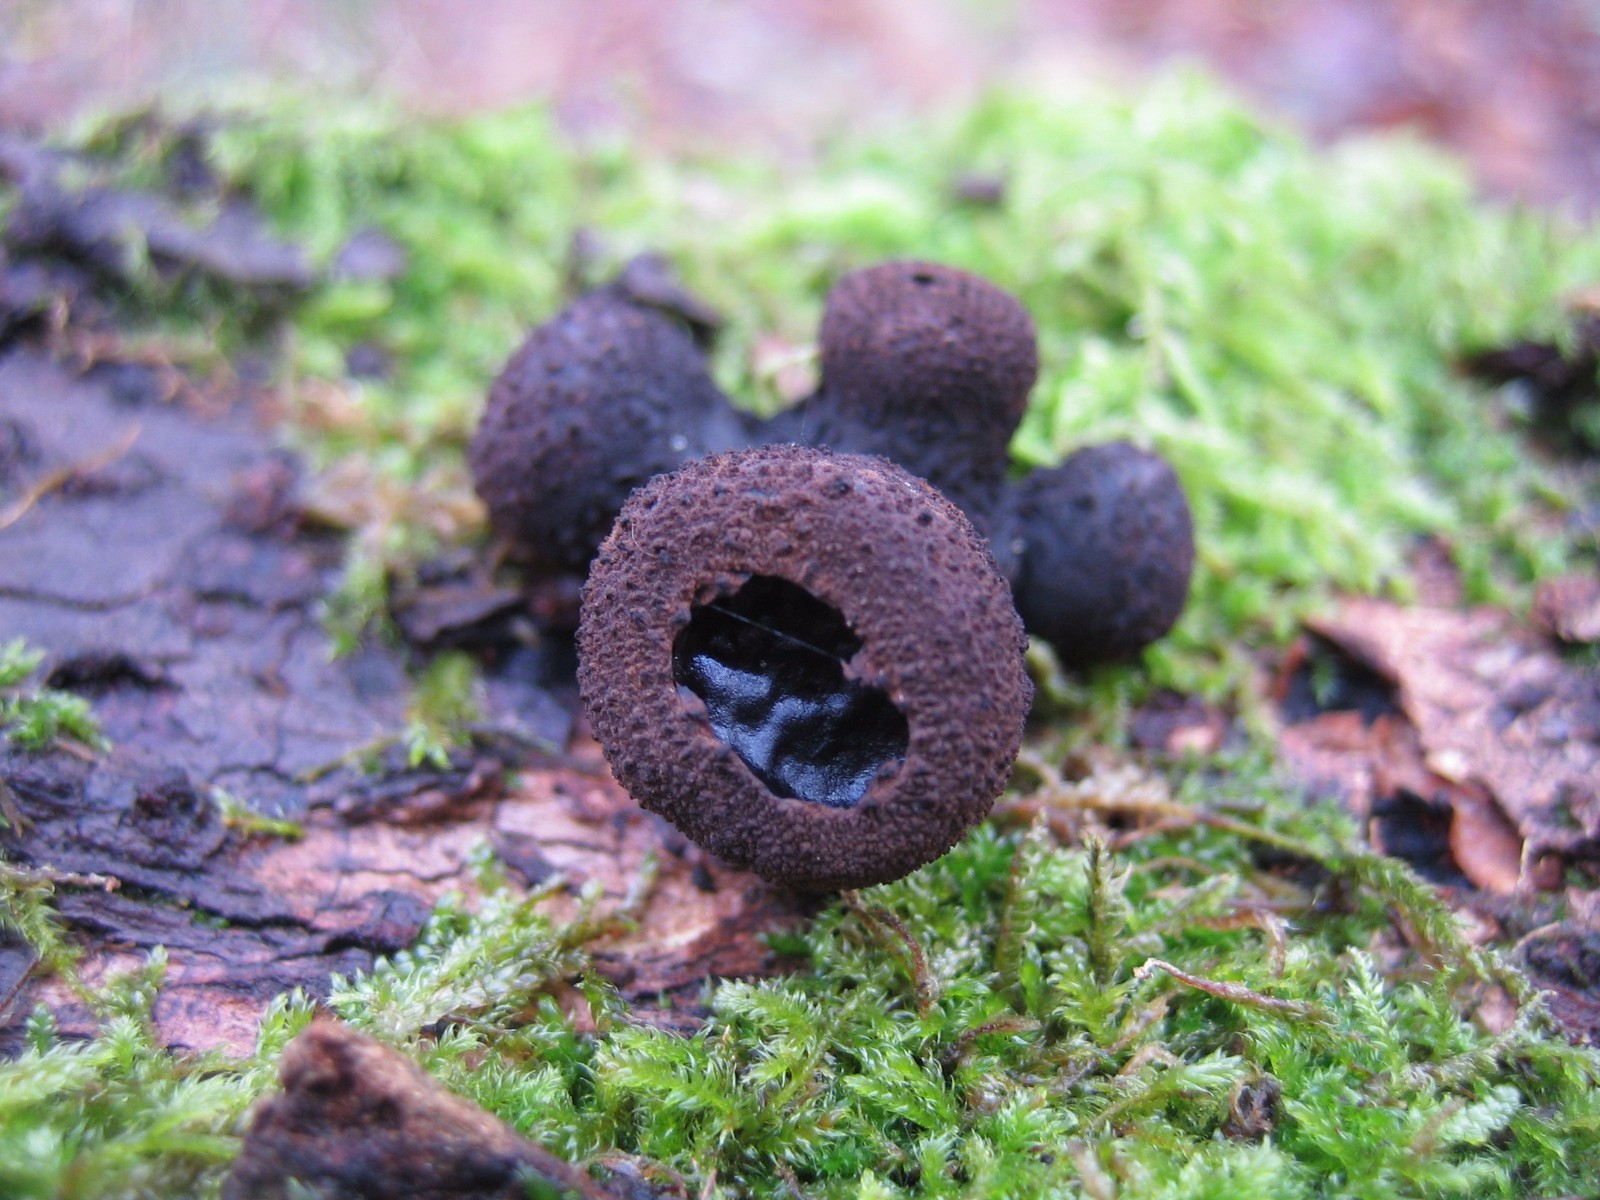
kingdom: Fungi
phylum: Ascomycota
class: Leotiomycetes
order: Phacidiales
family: Phacidiaceae
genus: Bulgaria
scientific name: Bulgaria inquinans
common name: afsmittende topsvamp
